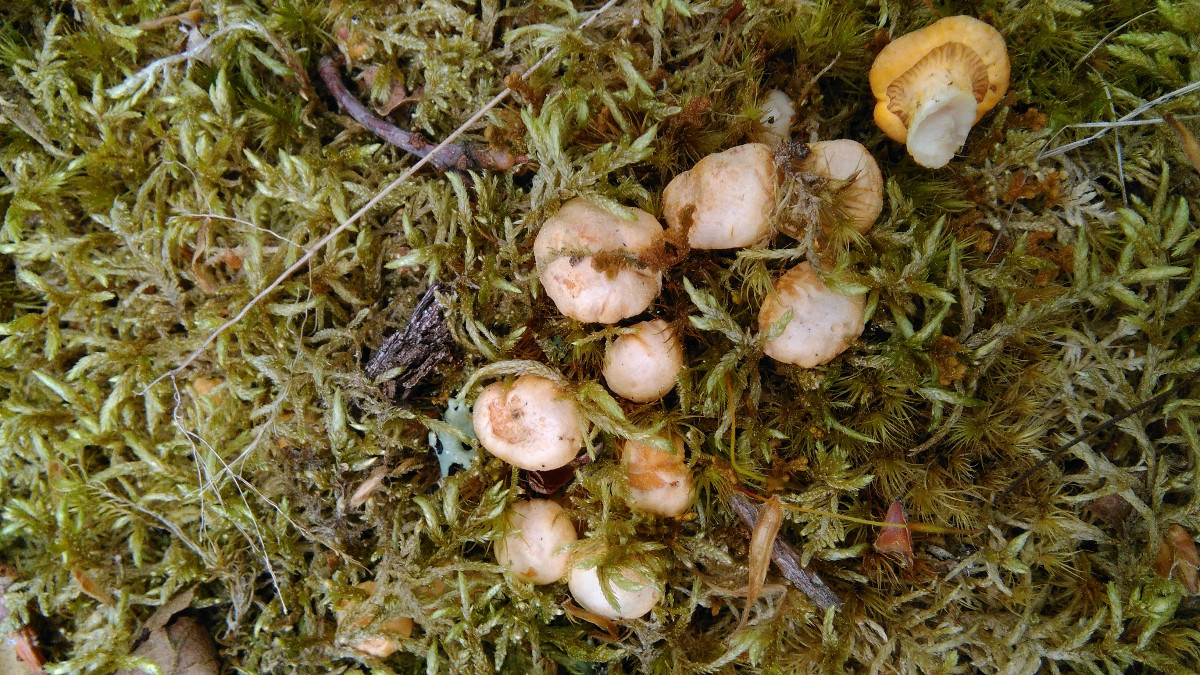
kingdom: Fungi
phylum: Basidiomycota
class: Agaricomycetes
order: Cantharellales
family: Hydnaceae
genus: Cantharellus
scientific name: Cantharellus
